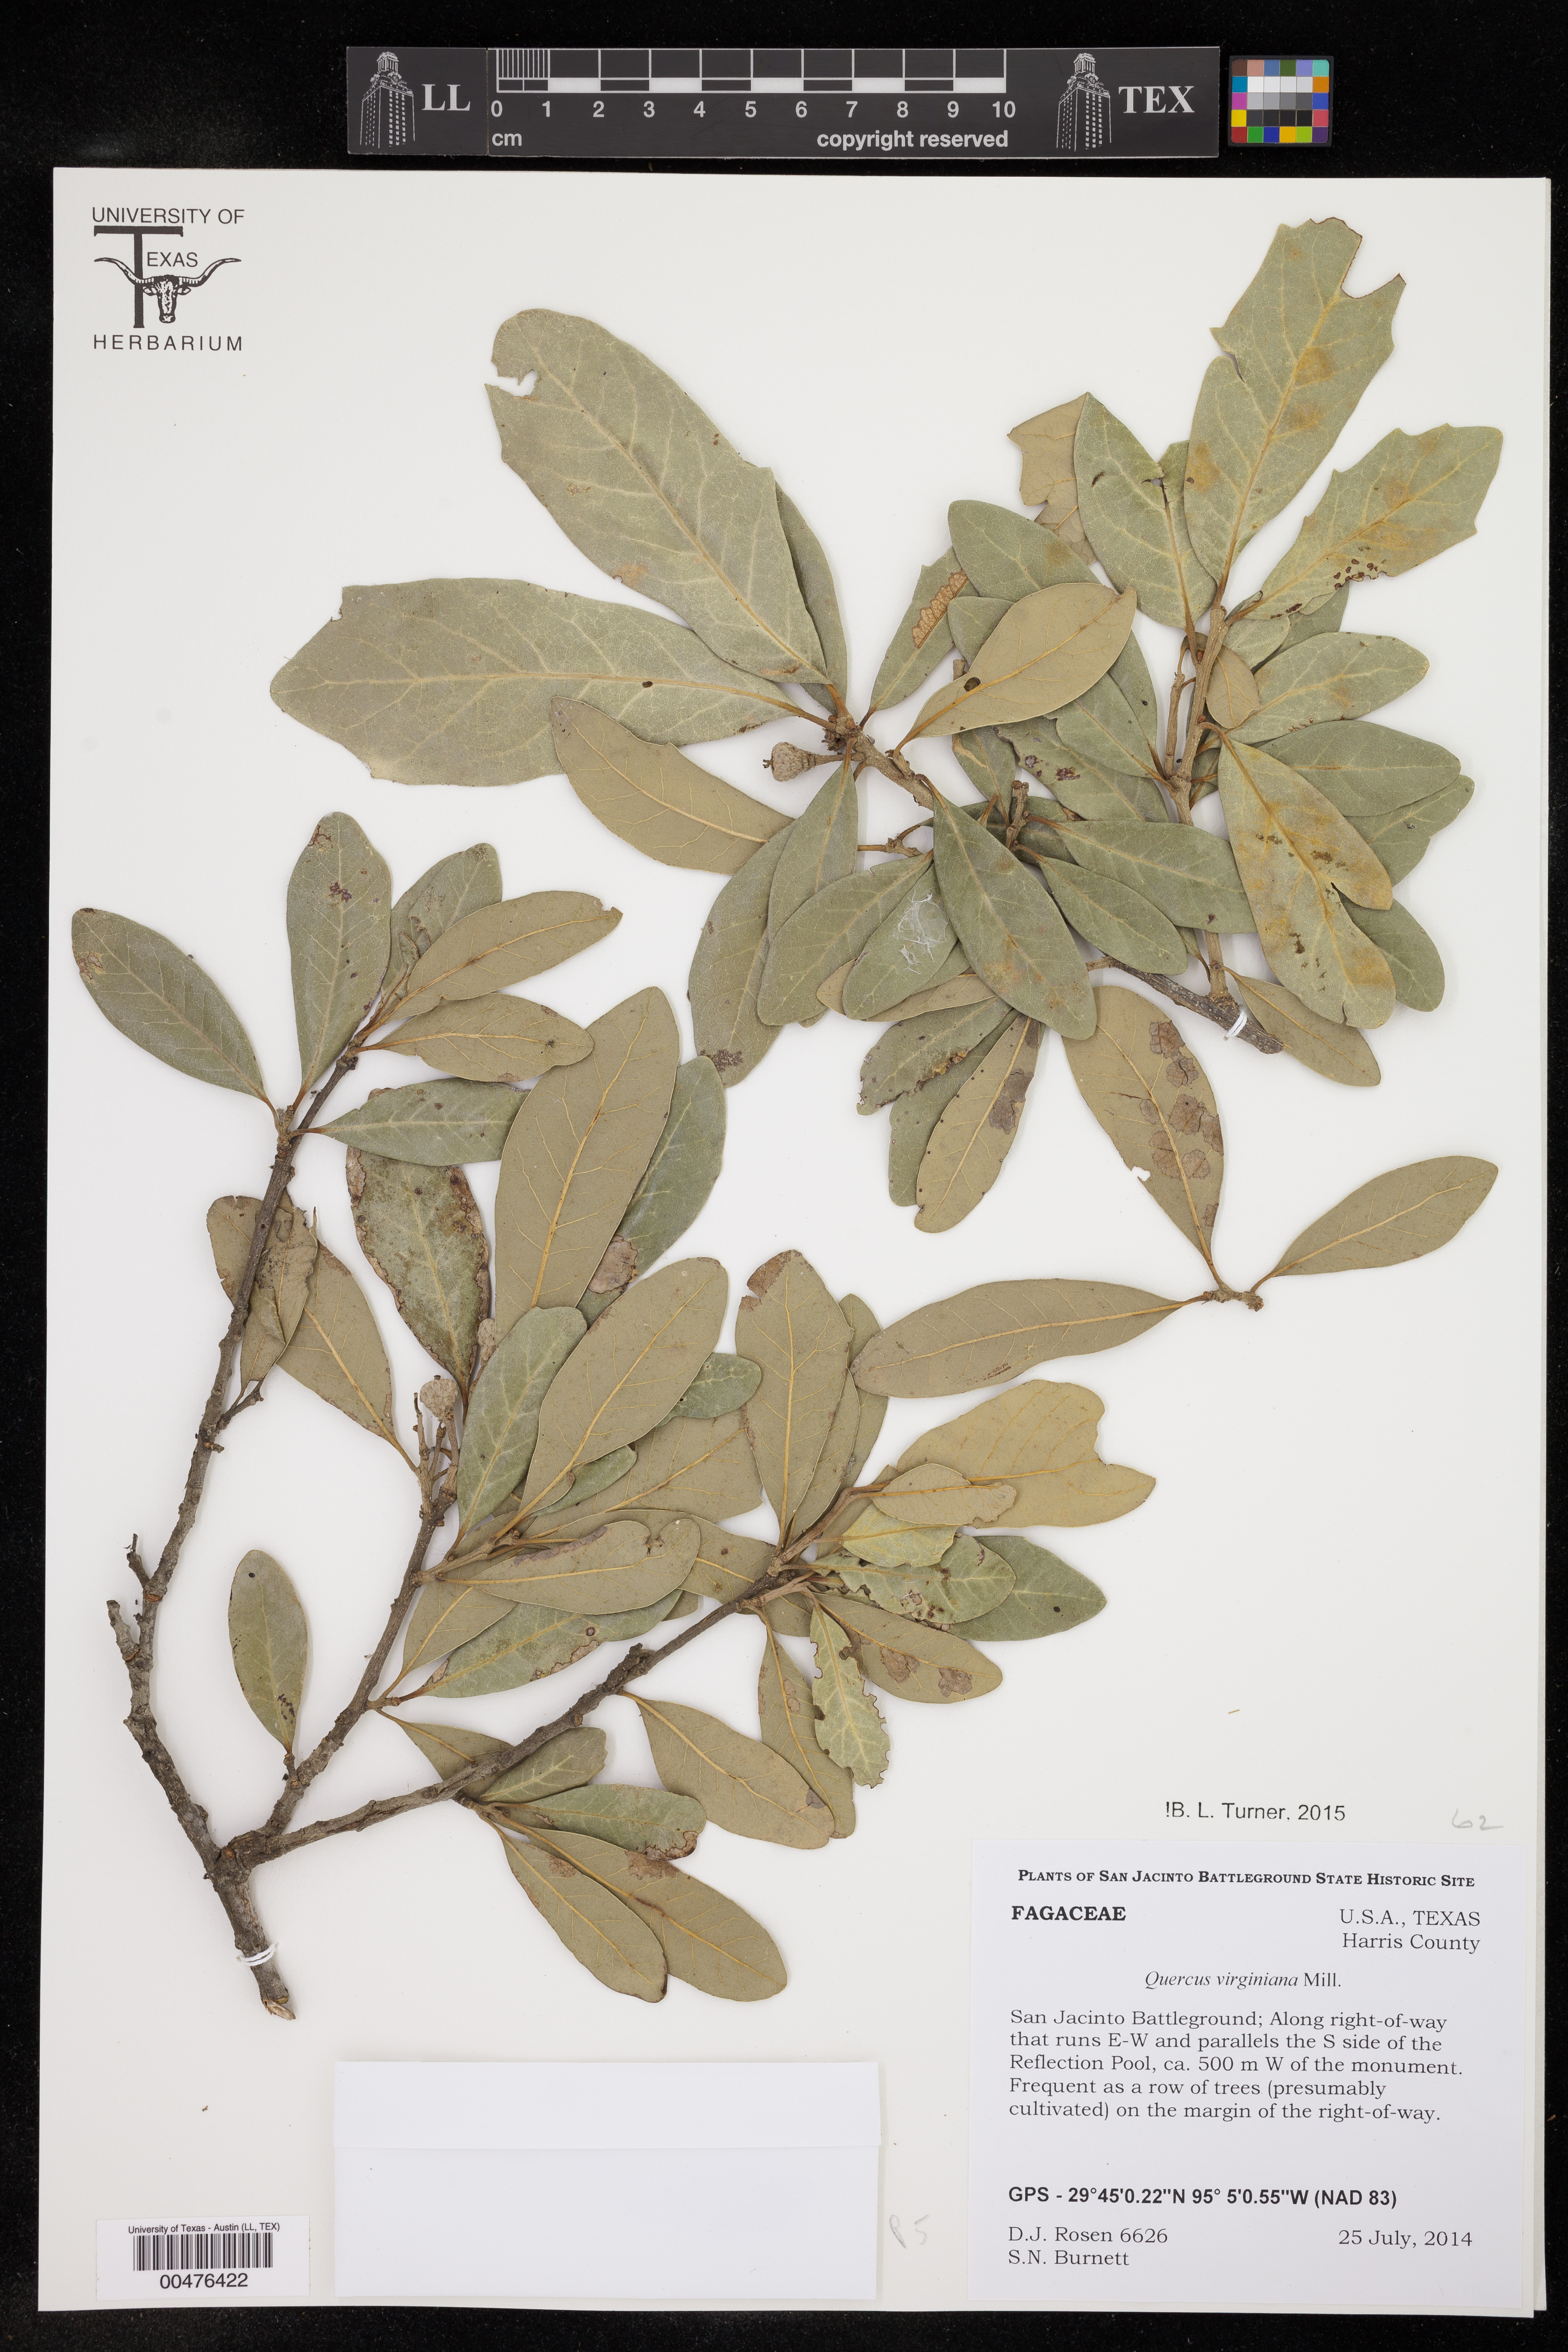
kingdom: Plantae
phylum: Tracheophyta
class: Magnoliopsida
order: Fagales
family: Fagaceae
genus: Quercus
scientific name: Quercus virginiana
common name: Southern live oak
